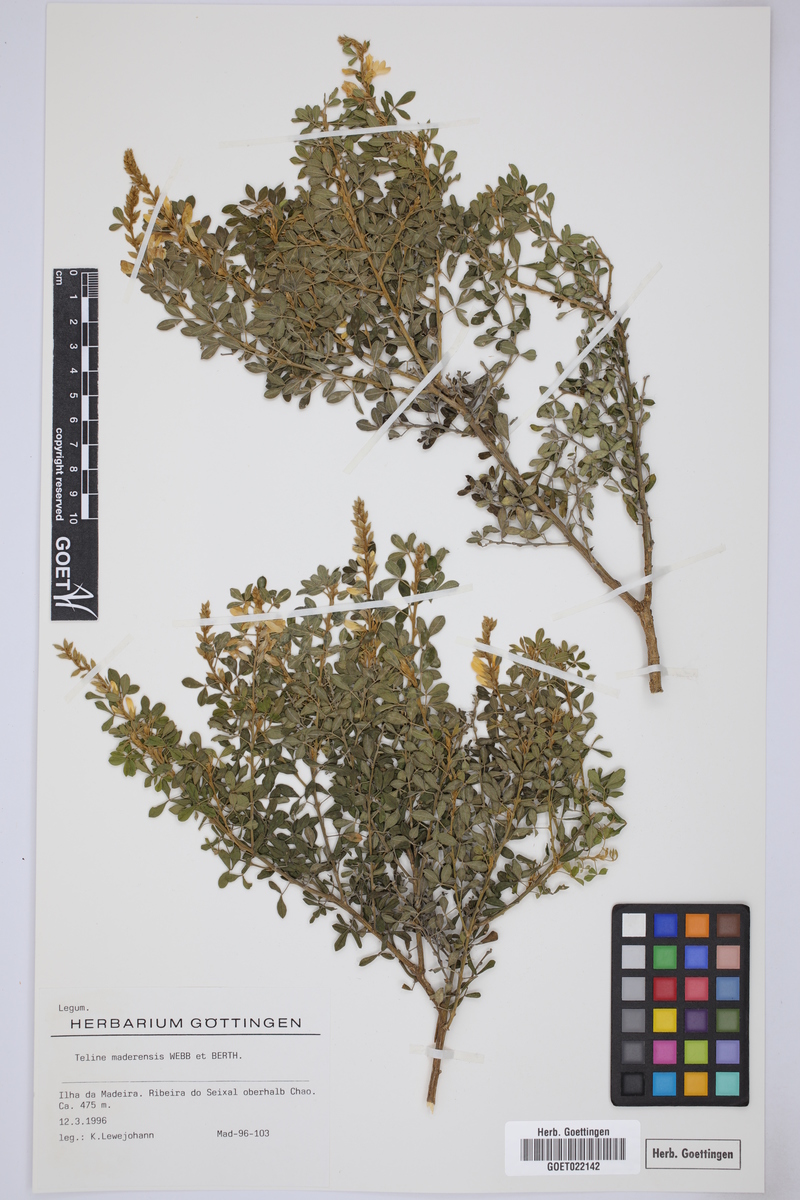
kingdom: Plantae
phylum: Tracheophyta
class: Magnoliopsida
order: Fabales
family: Fabaceae
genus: Genista
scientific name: Genista maderensis
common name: Madeira dyer's greenweed
